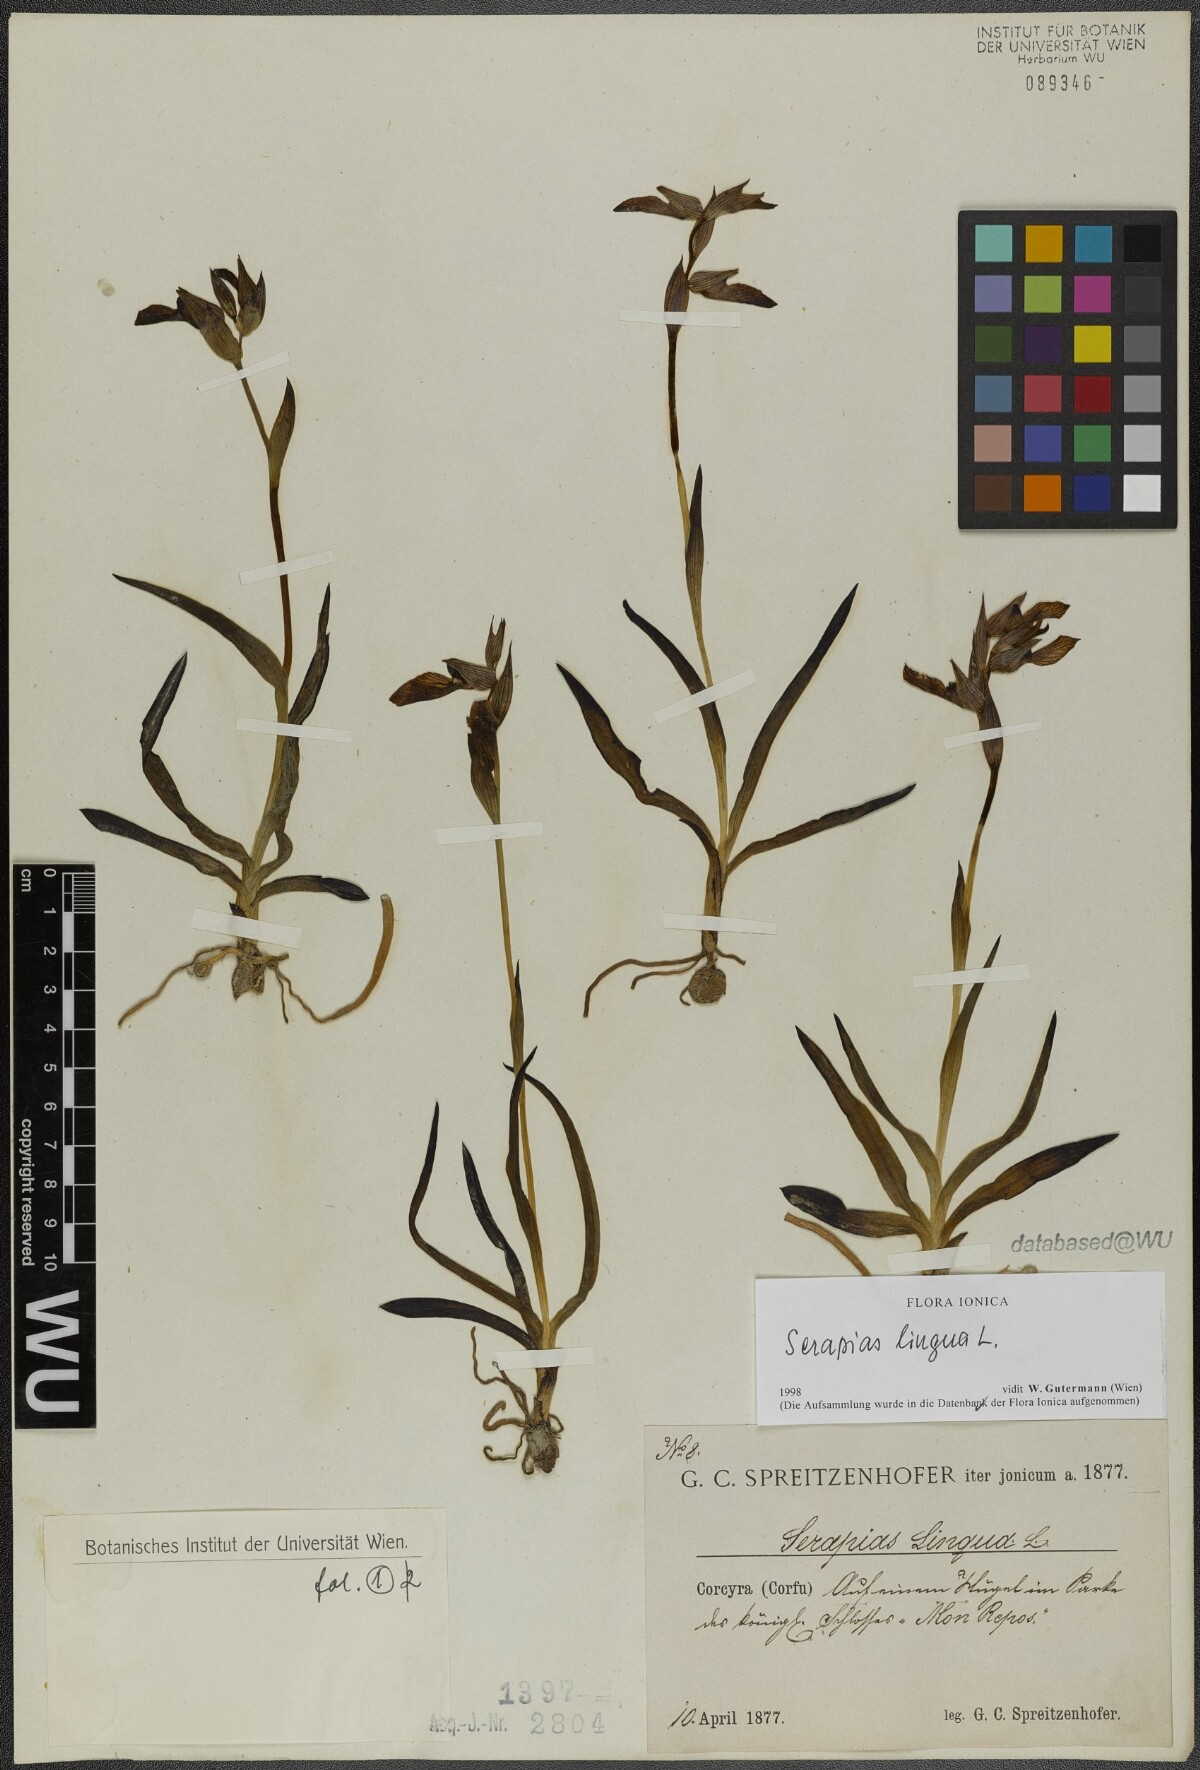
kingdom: Plantae
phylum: Tracheophyta
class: Liliopsida
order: Asparagales
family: Orchidaceae
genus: Serapias
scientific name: Serapias lingua
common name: Tongue-orchid
